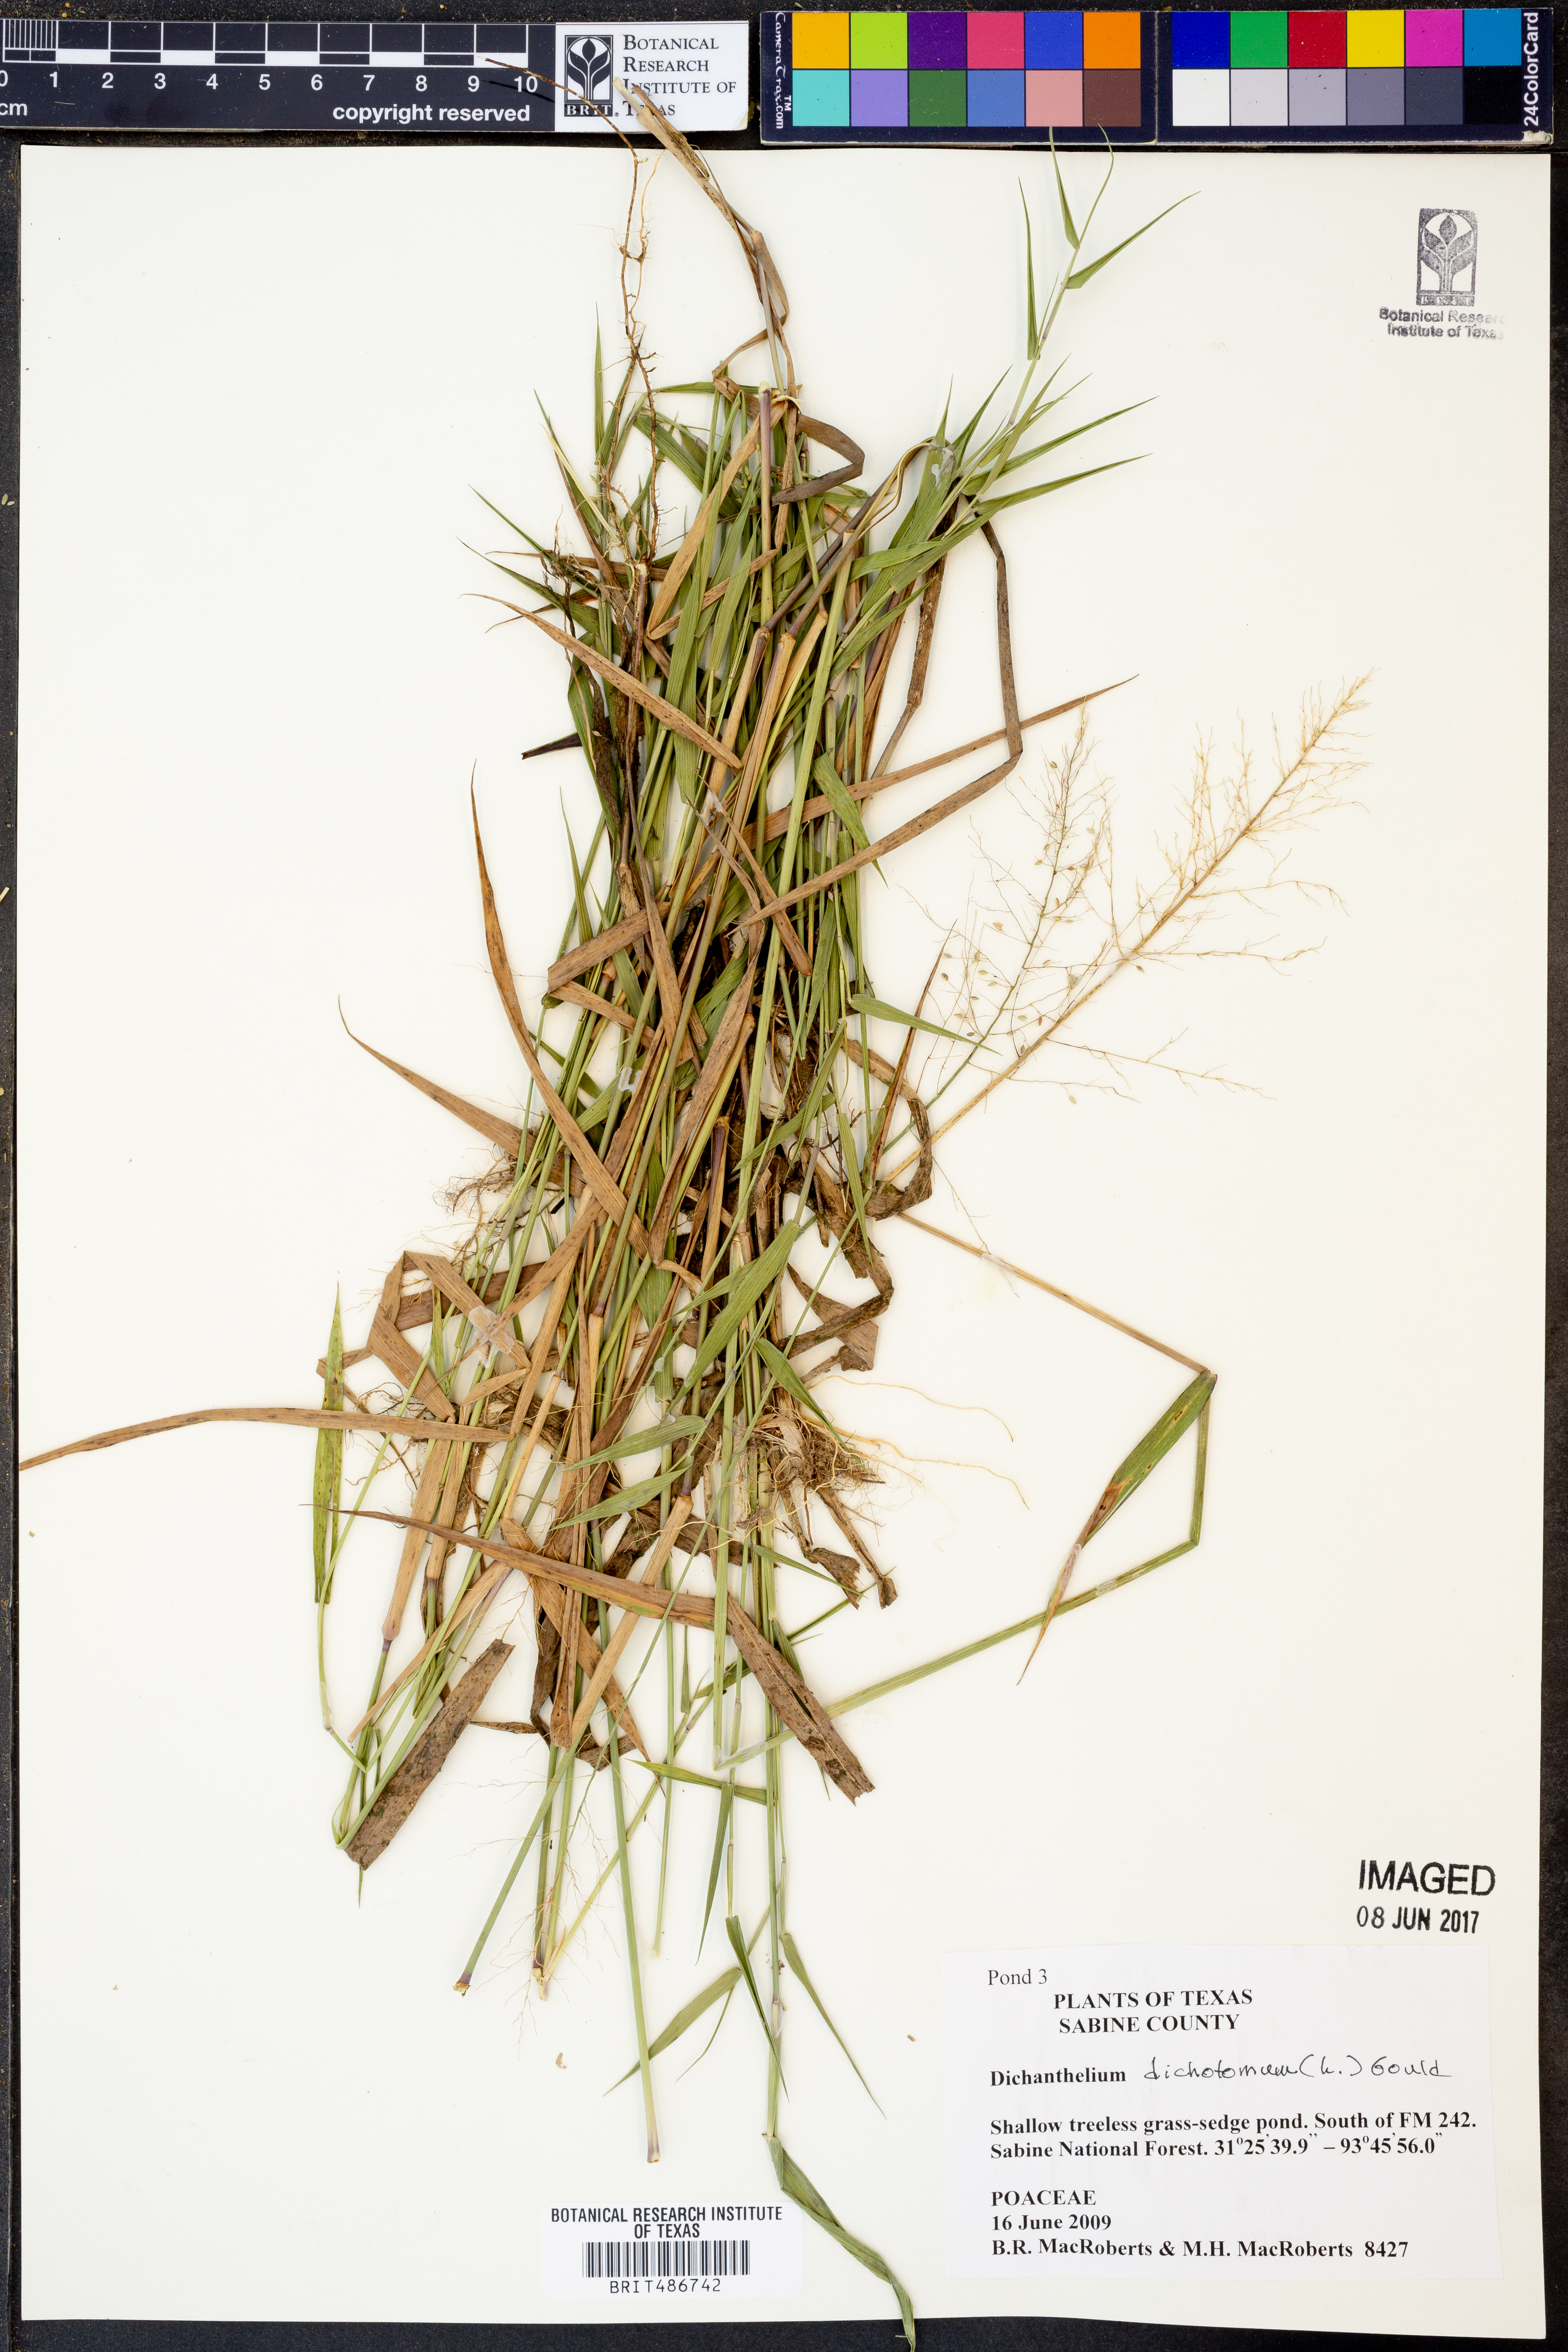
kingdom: Plantae
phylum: Tracheophyta
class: Liliopsida
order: Poales
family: Poaceae
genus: Dichanthelium
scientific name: Dichanthelium dichotomum
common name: Cypress panicgrass
